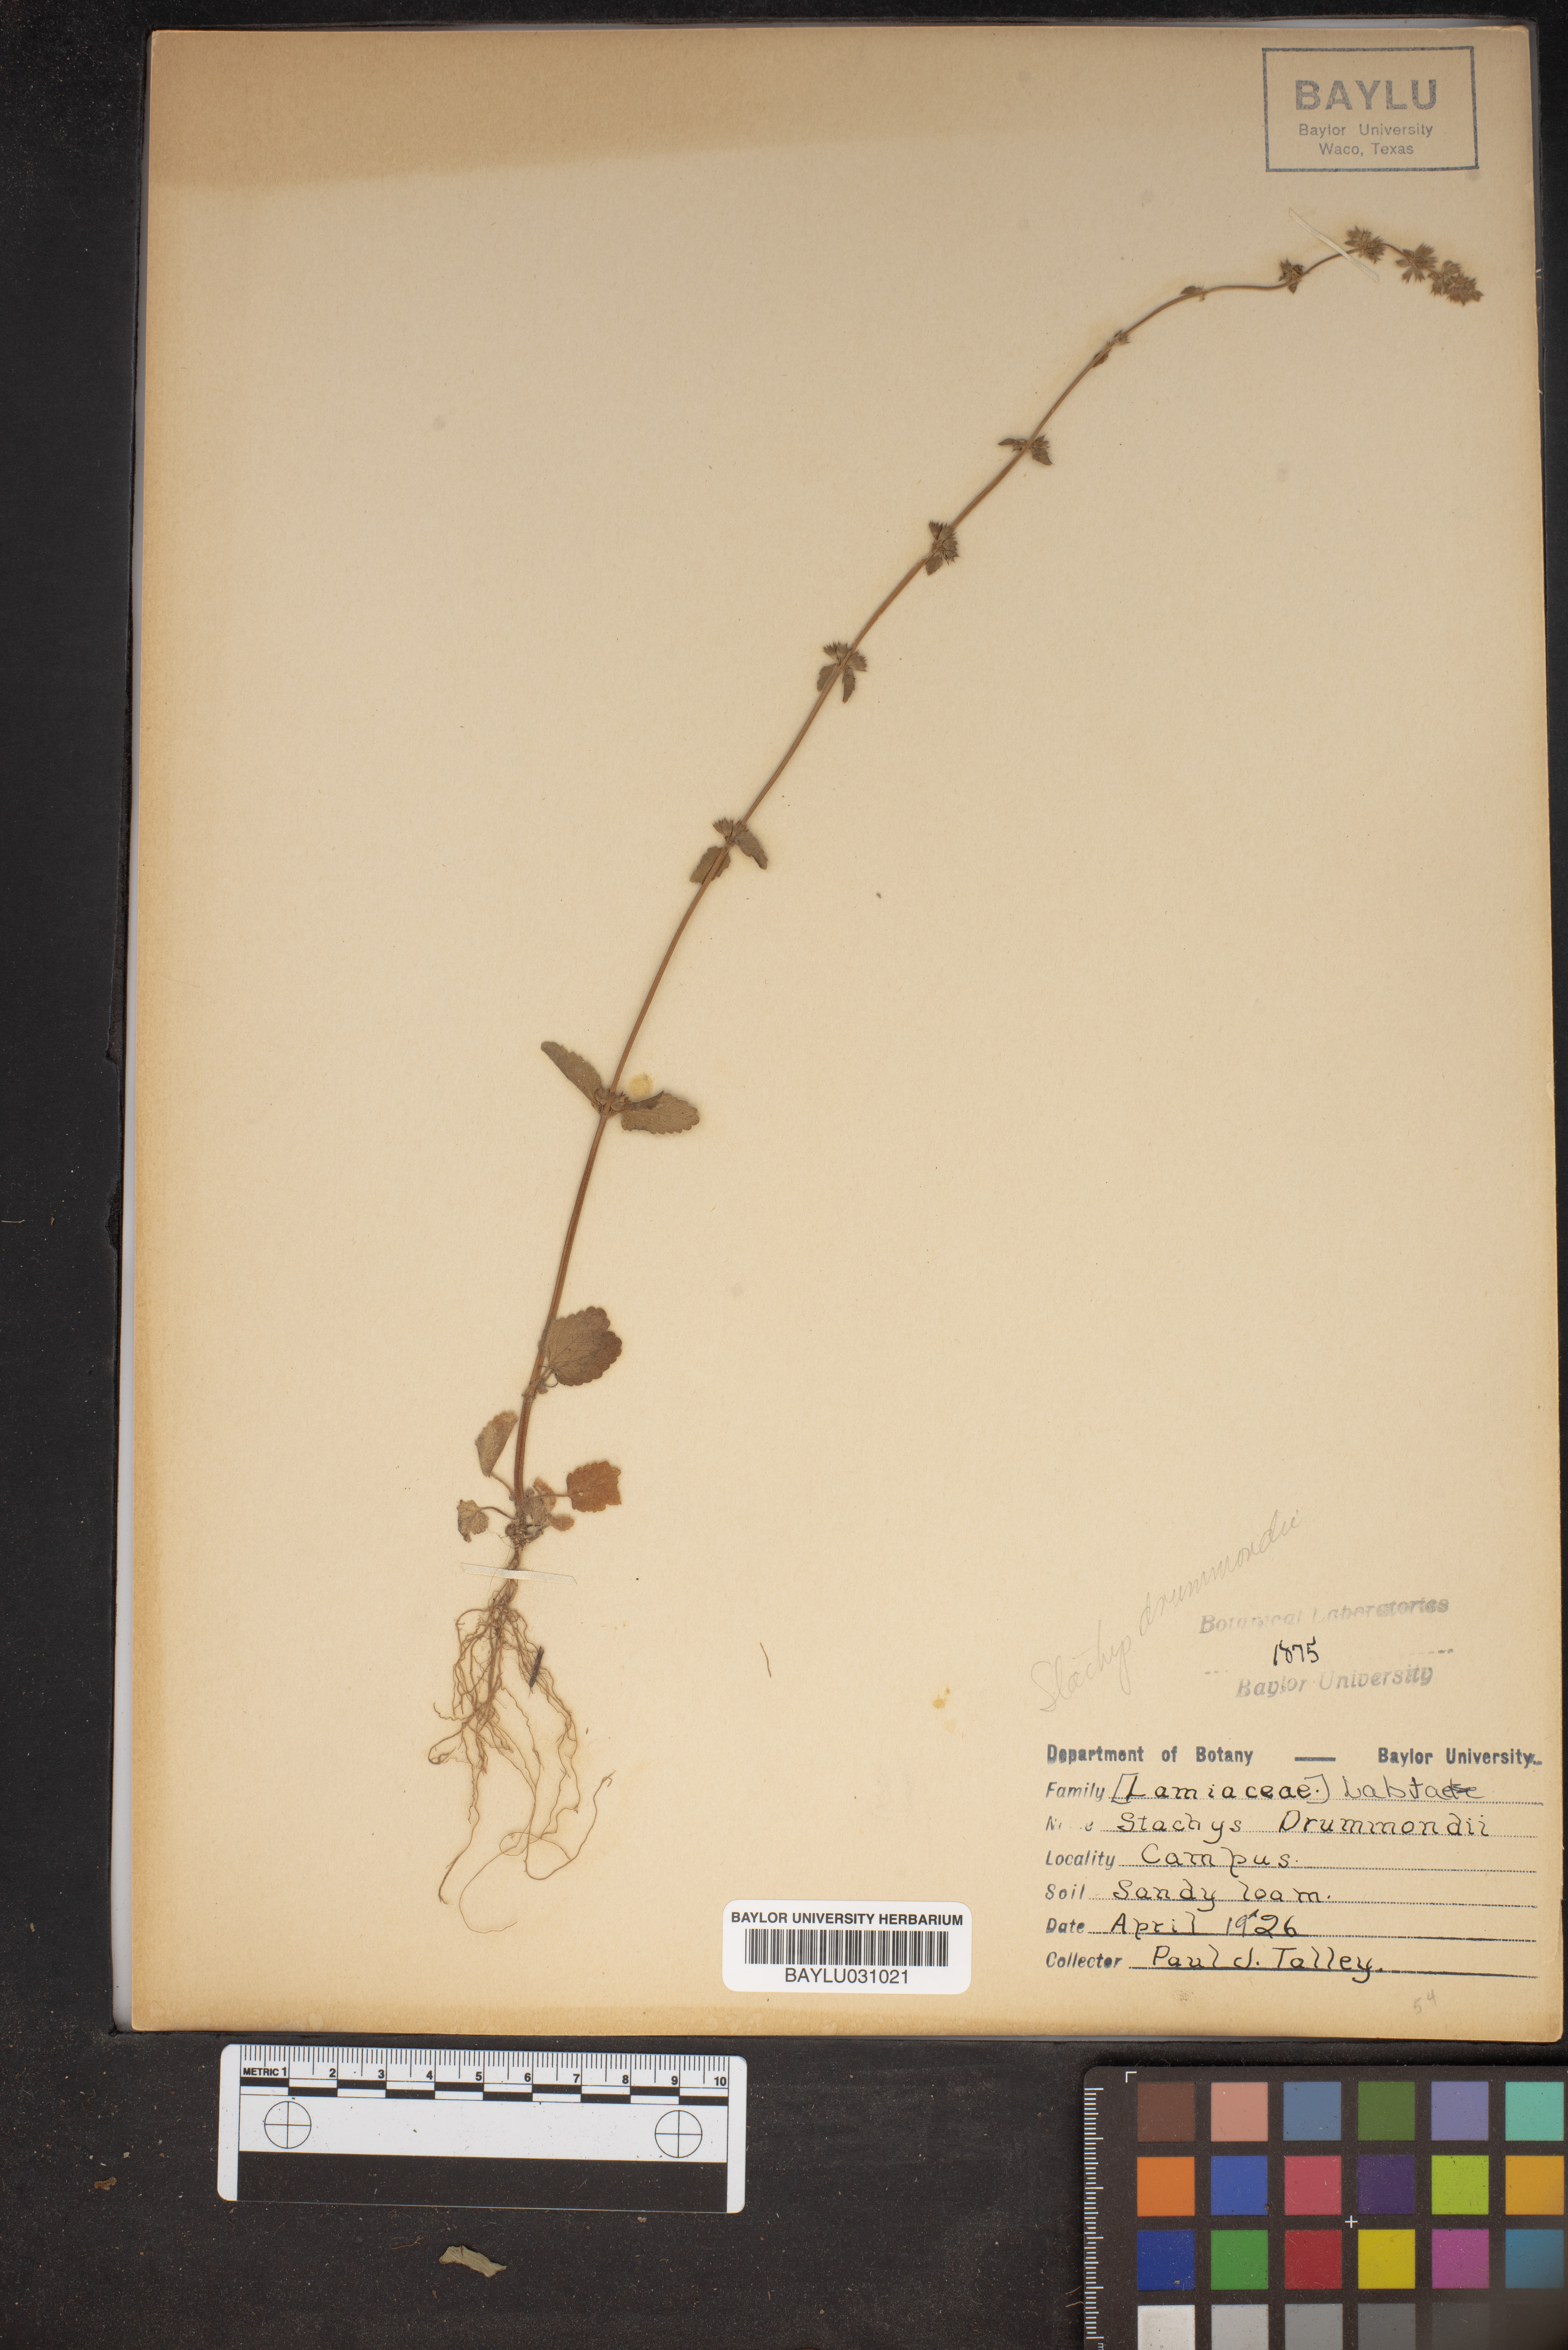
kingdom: Plantae
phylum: Tracheophyta
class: Magnoliopsida
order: Lamiales
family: Lamiaceae
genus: Stachys
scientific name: Stachys drummondii
